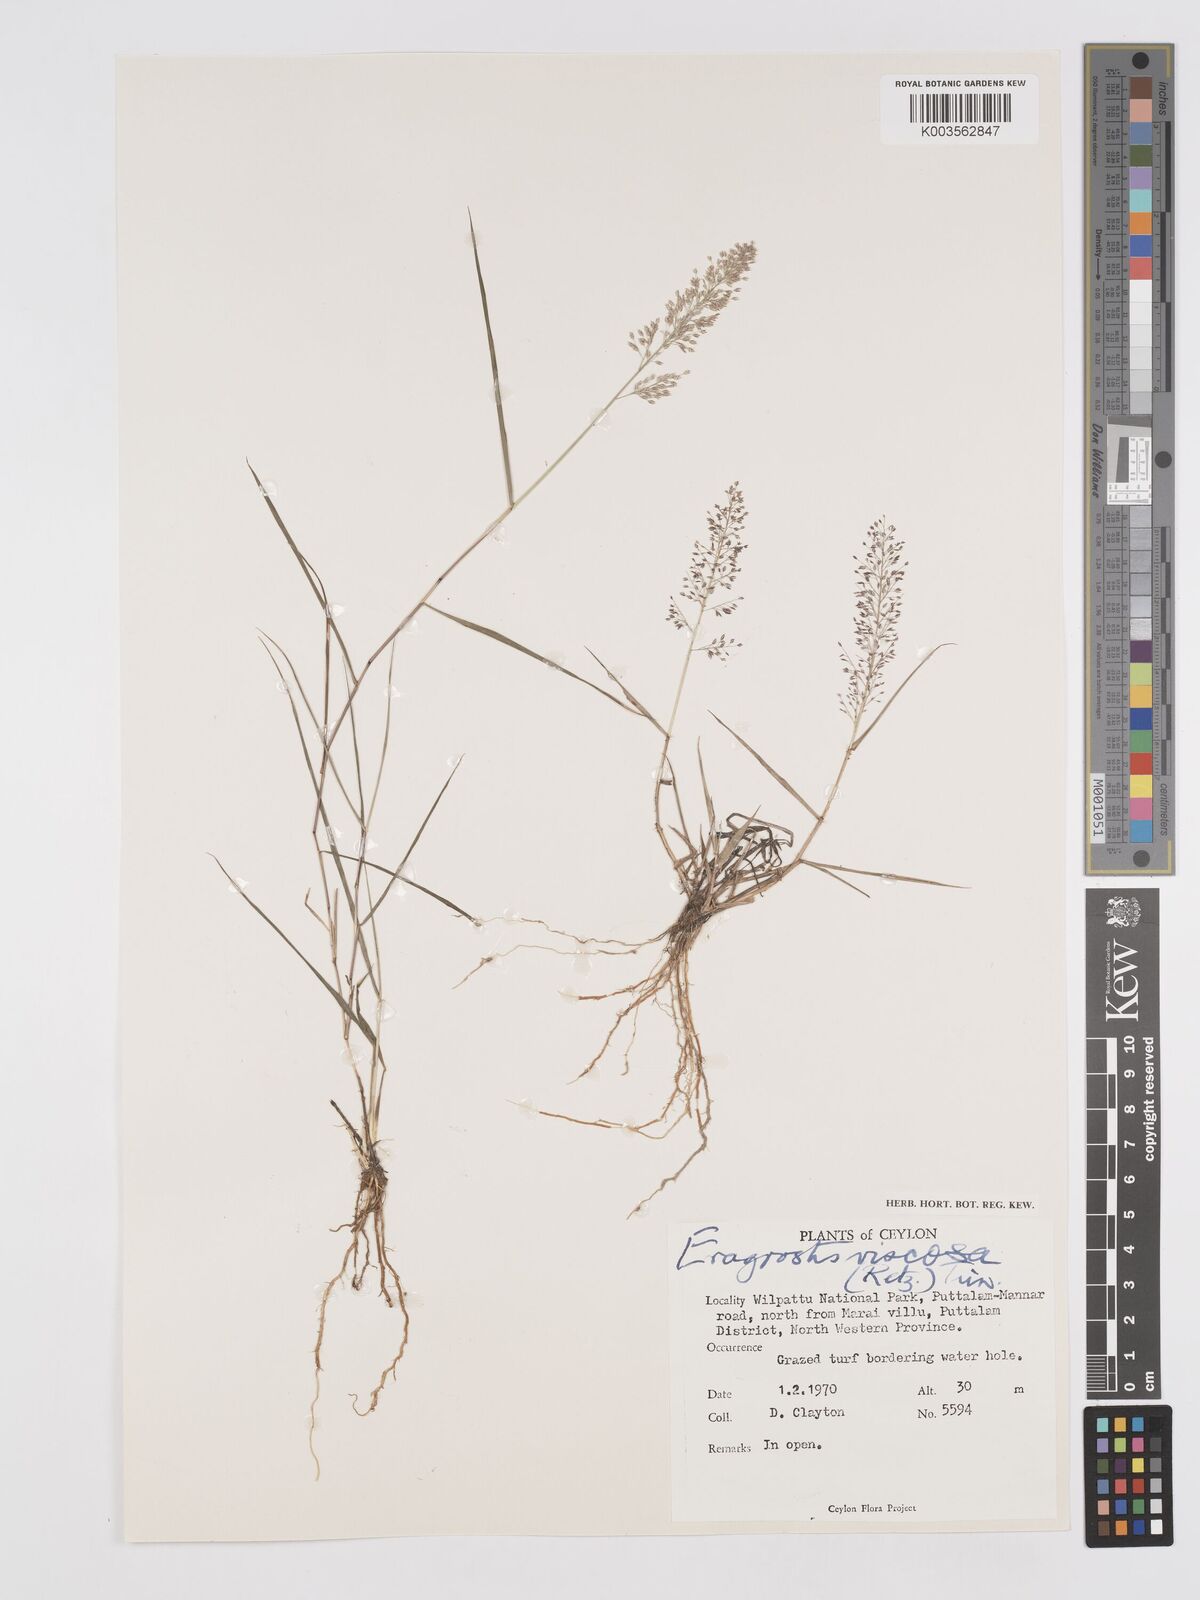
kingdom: Plantae
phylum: Tracheophyta
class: Liliopsida
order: Poales
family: Poaceae
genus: Eragrostis
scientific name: Eragrostis viscosa
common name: Sticky love grass
